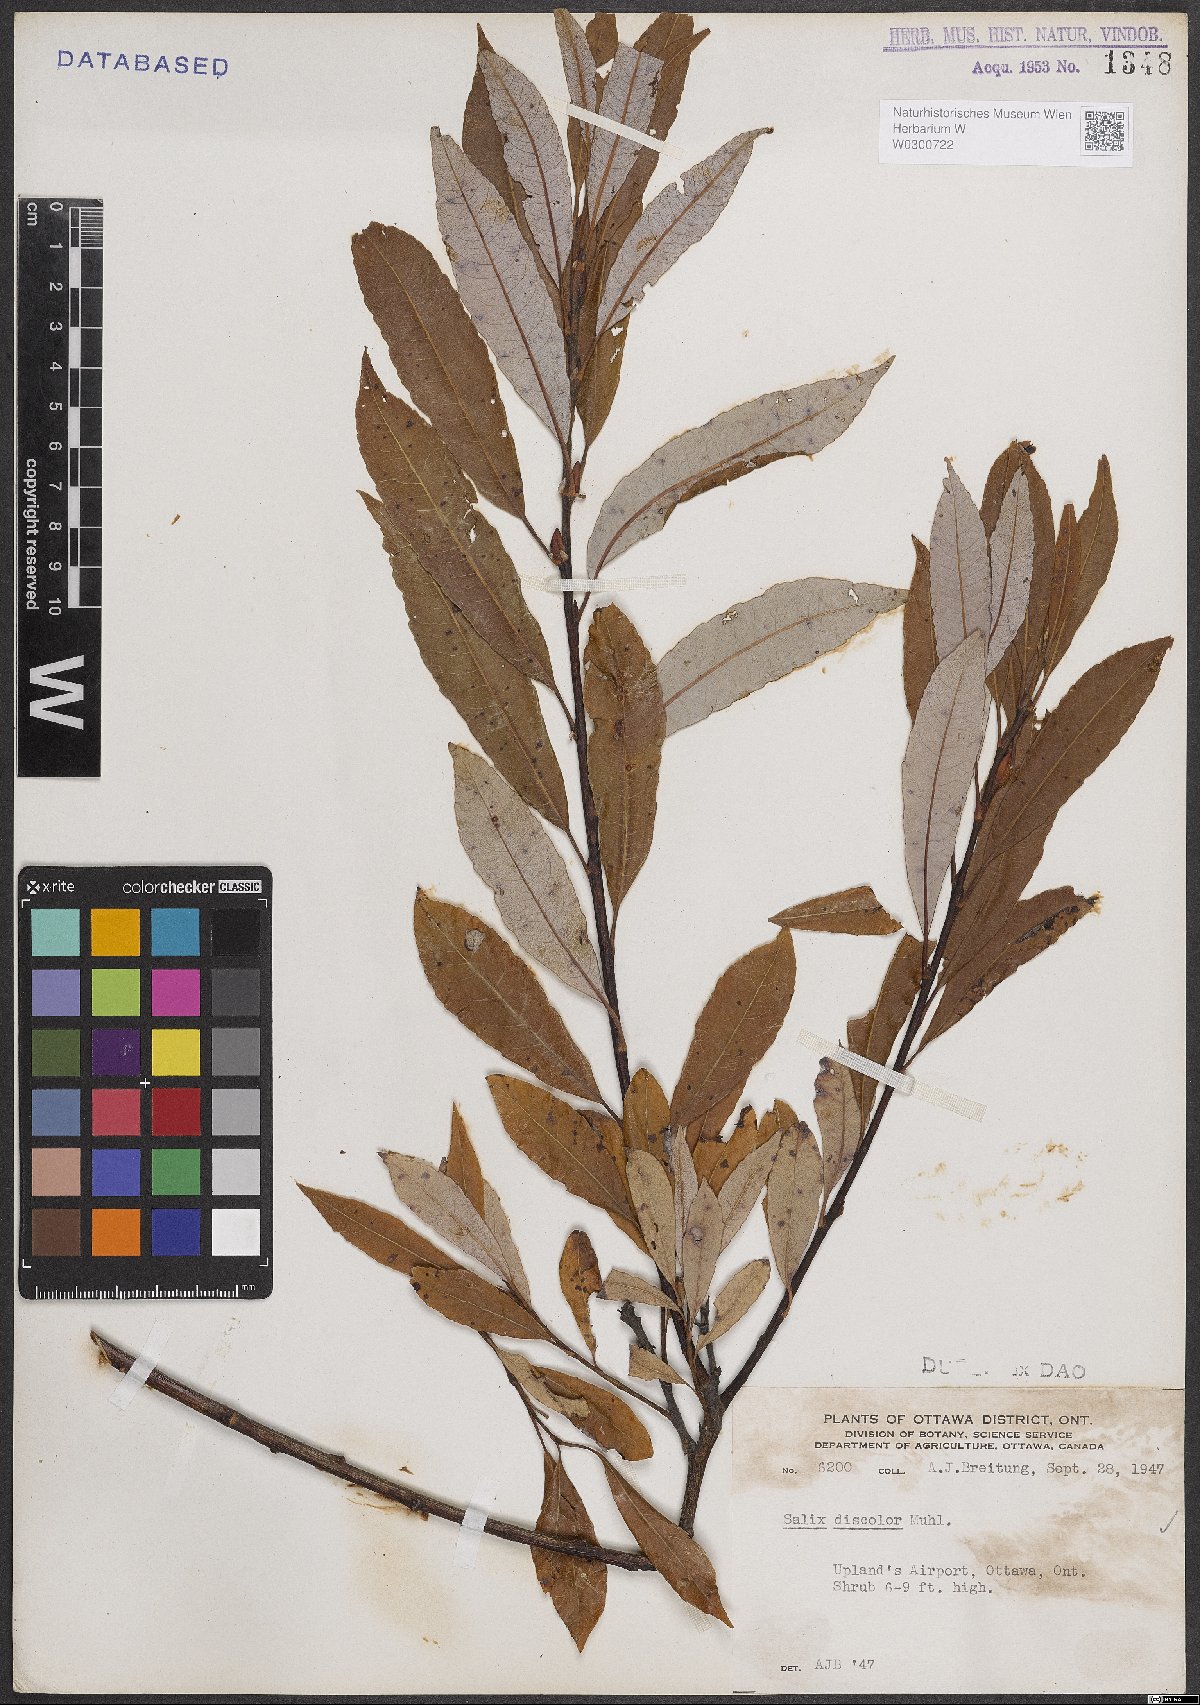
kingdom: Plantae
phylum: Tracheophyta
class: Magnoliopsida
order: Malpighiales
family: Salicaceae
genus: Salix
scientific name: Salix discolor
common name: Glaucous willow
